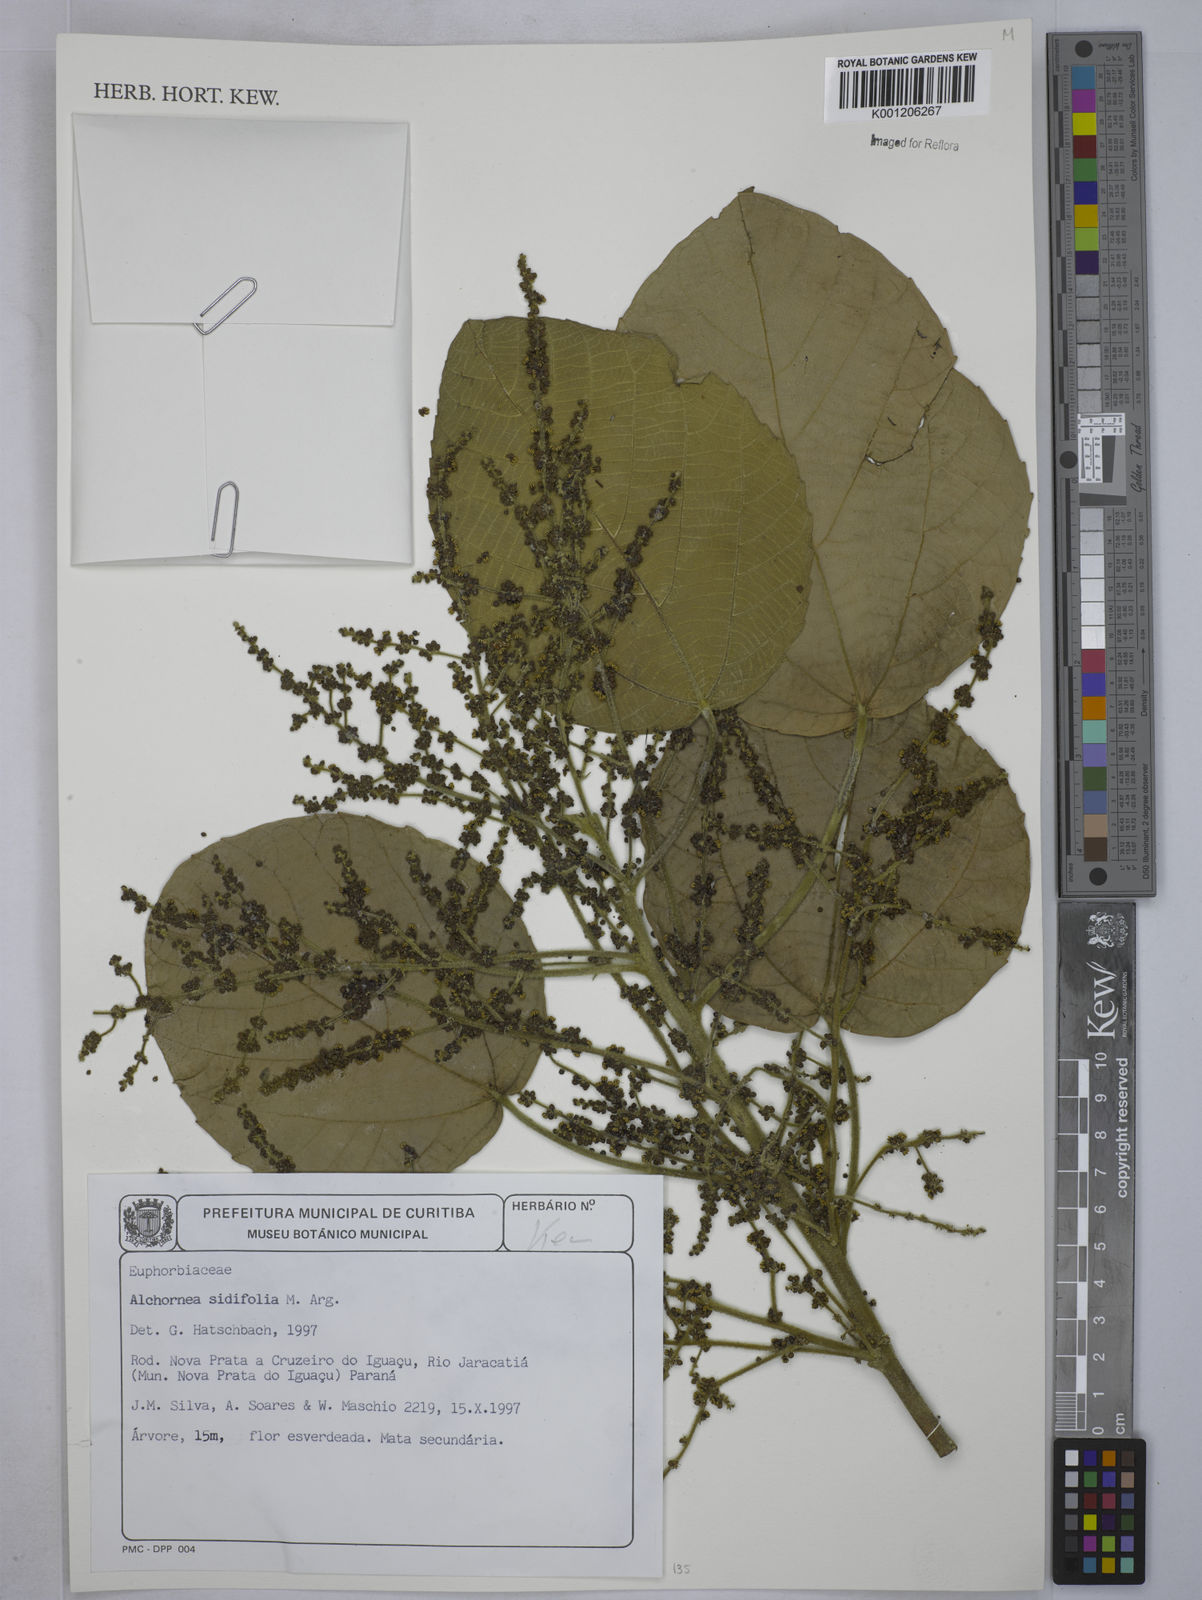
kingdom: Plantae
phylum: Tracheophyta
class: Magnoliopsida
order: Malpighiales
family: Euphorbiaceae
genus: Alchornea
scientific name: Alchornea
